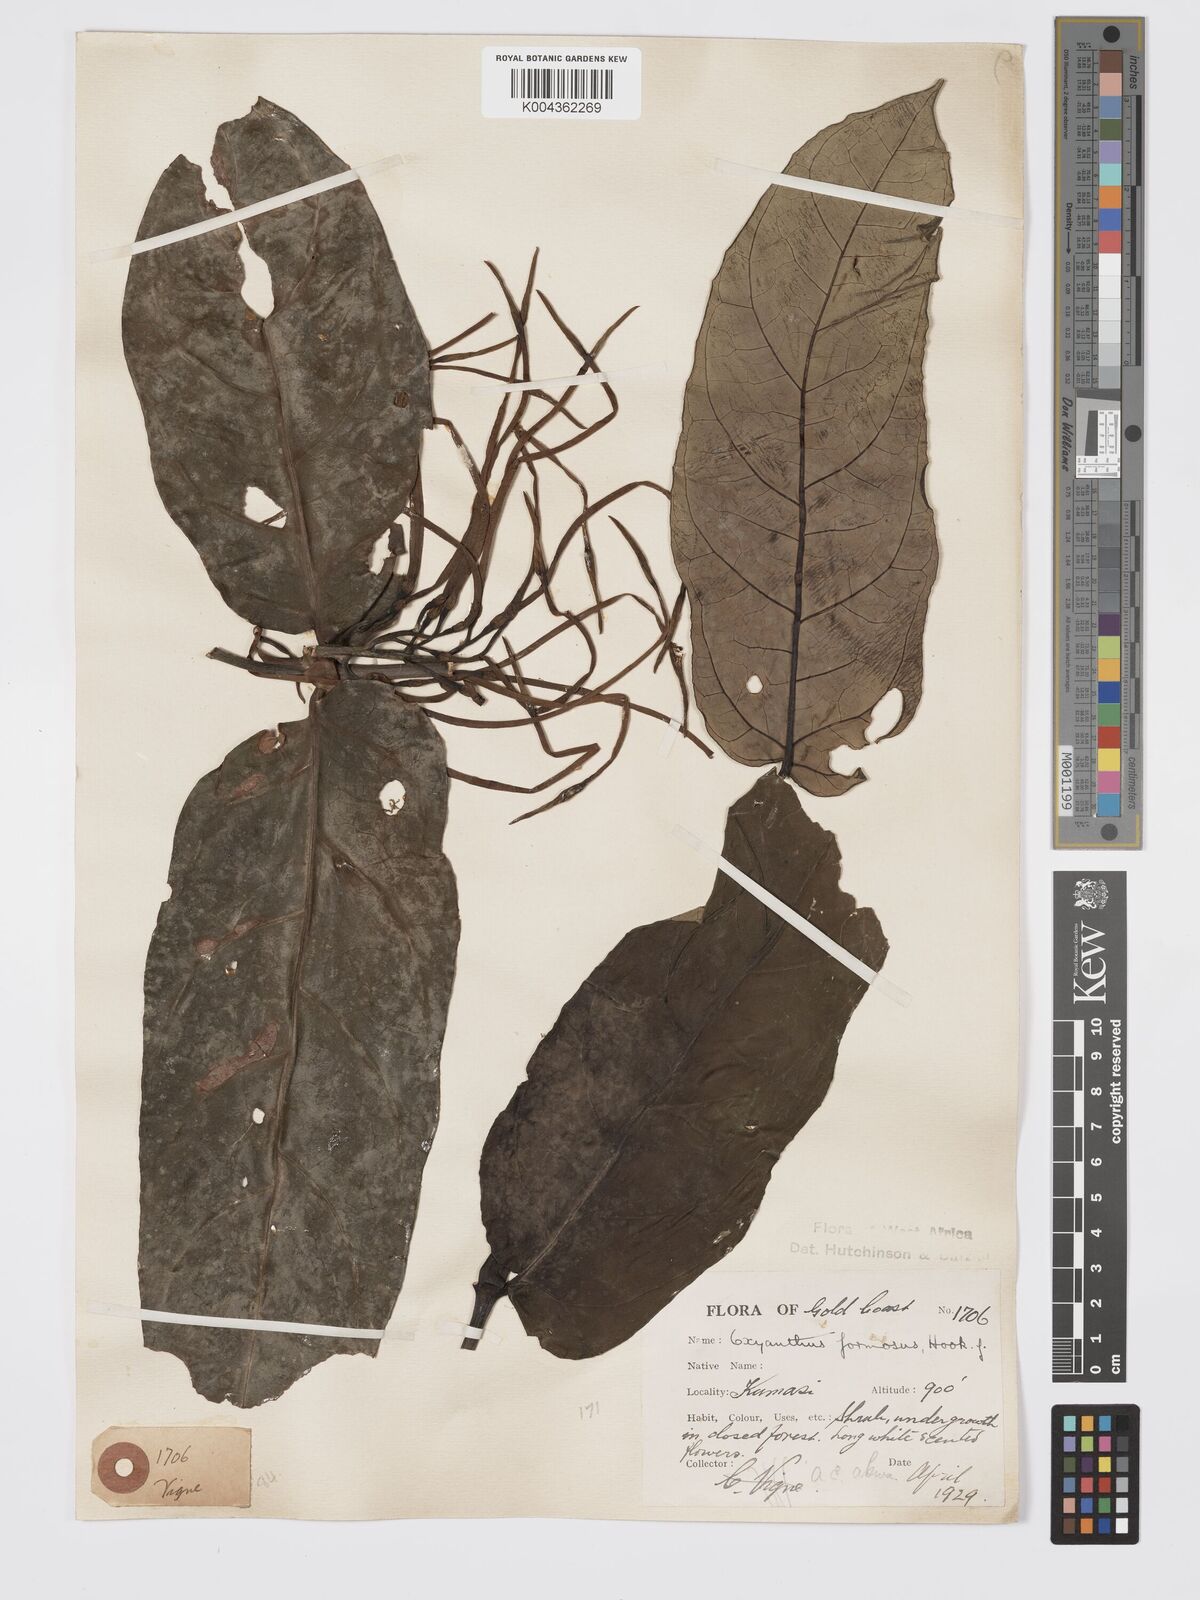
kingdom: Plantae
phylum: Tracheophyta
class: Magnoliopsida
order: Gentianales
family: Rubiaceae
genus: Oxyanthus
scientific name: Oxyanthus formosus
